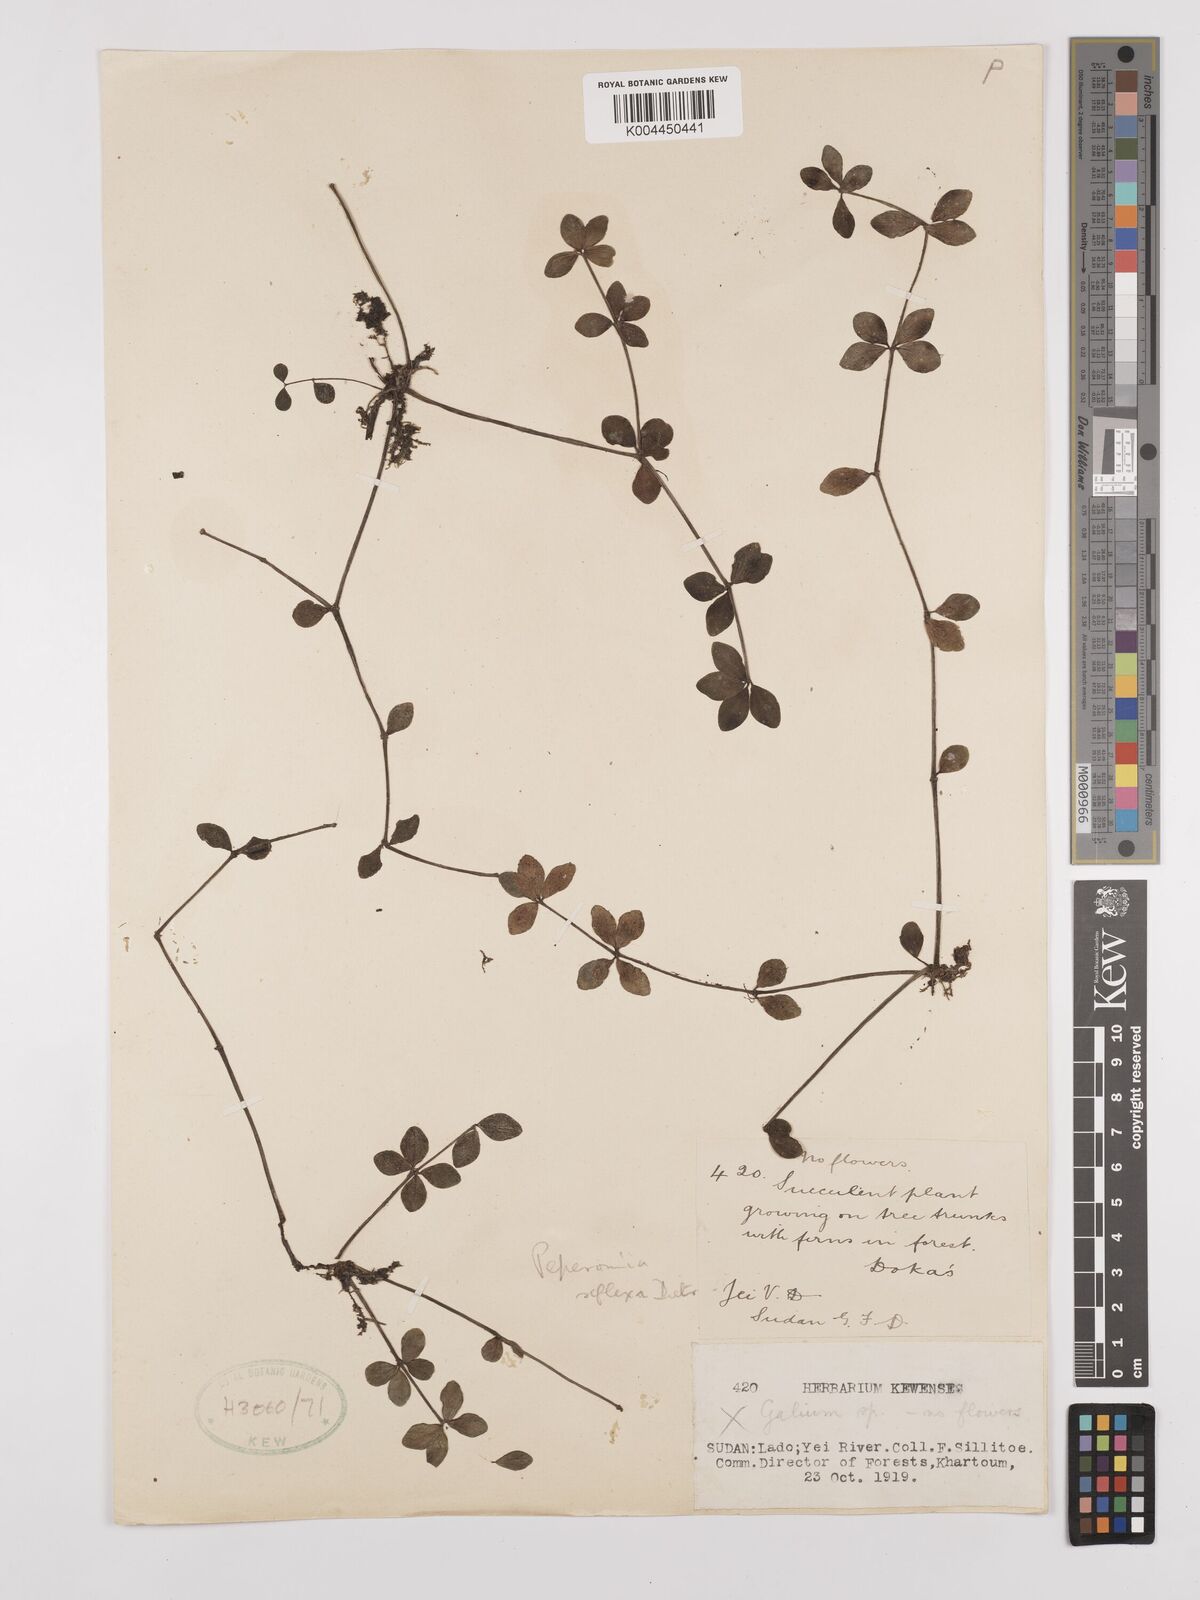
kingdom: Plantae
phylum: Tracheophyta
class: Magnoliopsida
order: Piperales
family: Piperaceae
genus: Peperomia
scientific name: Peperomia tetraphylla
